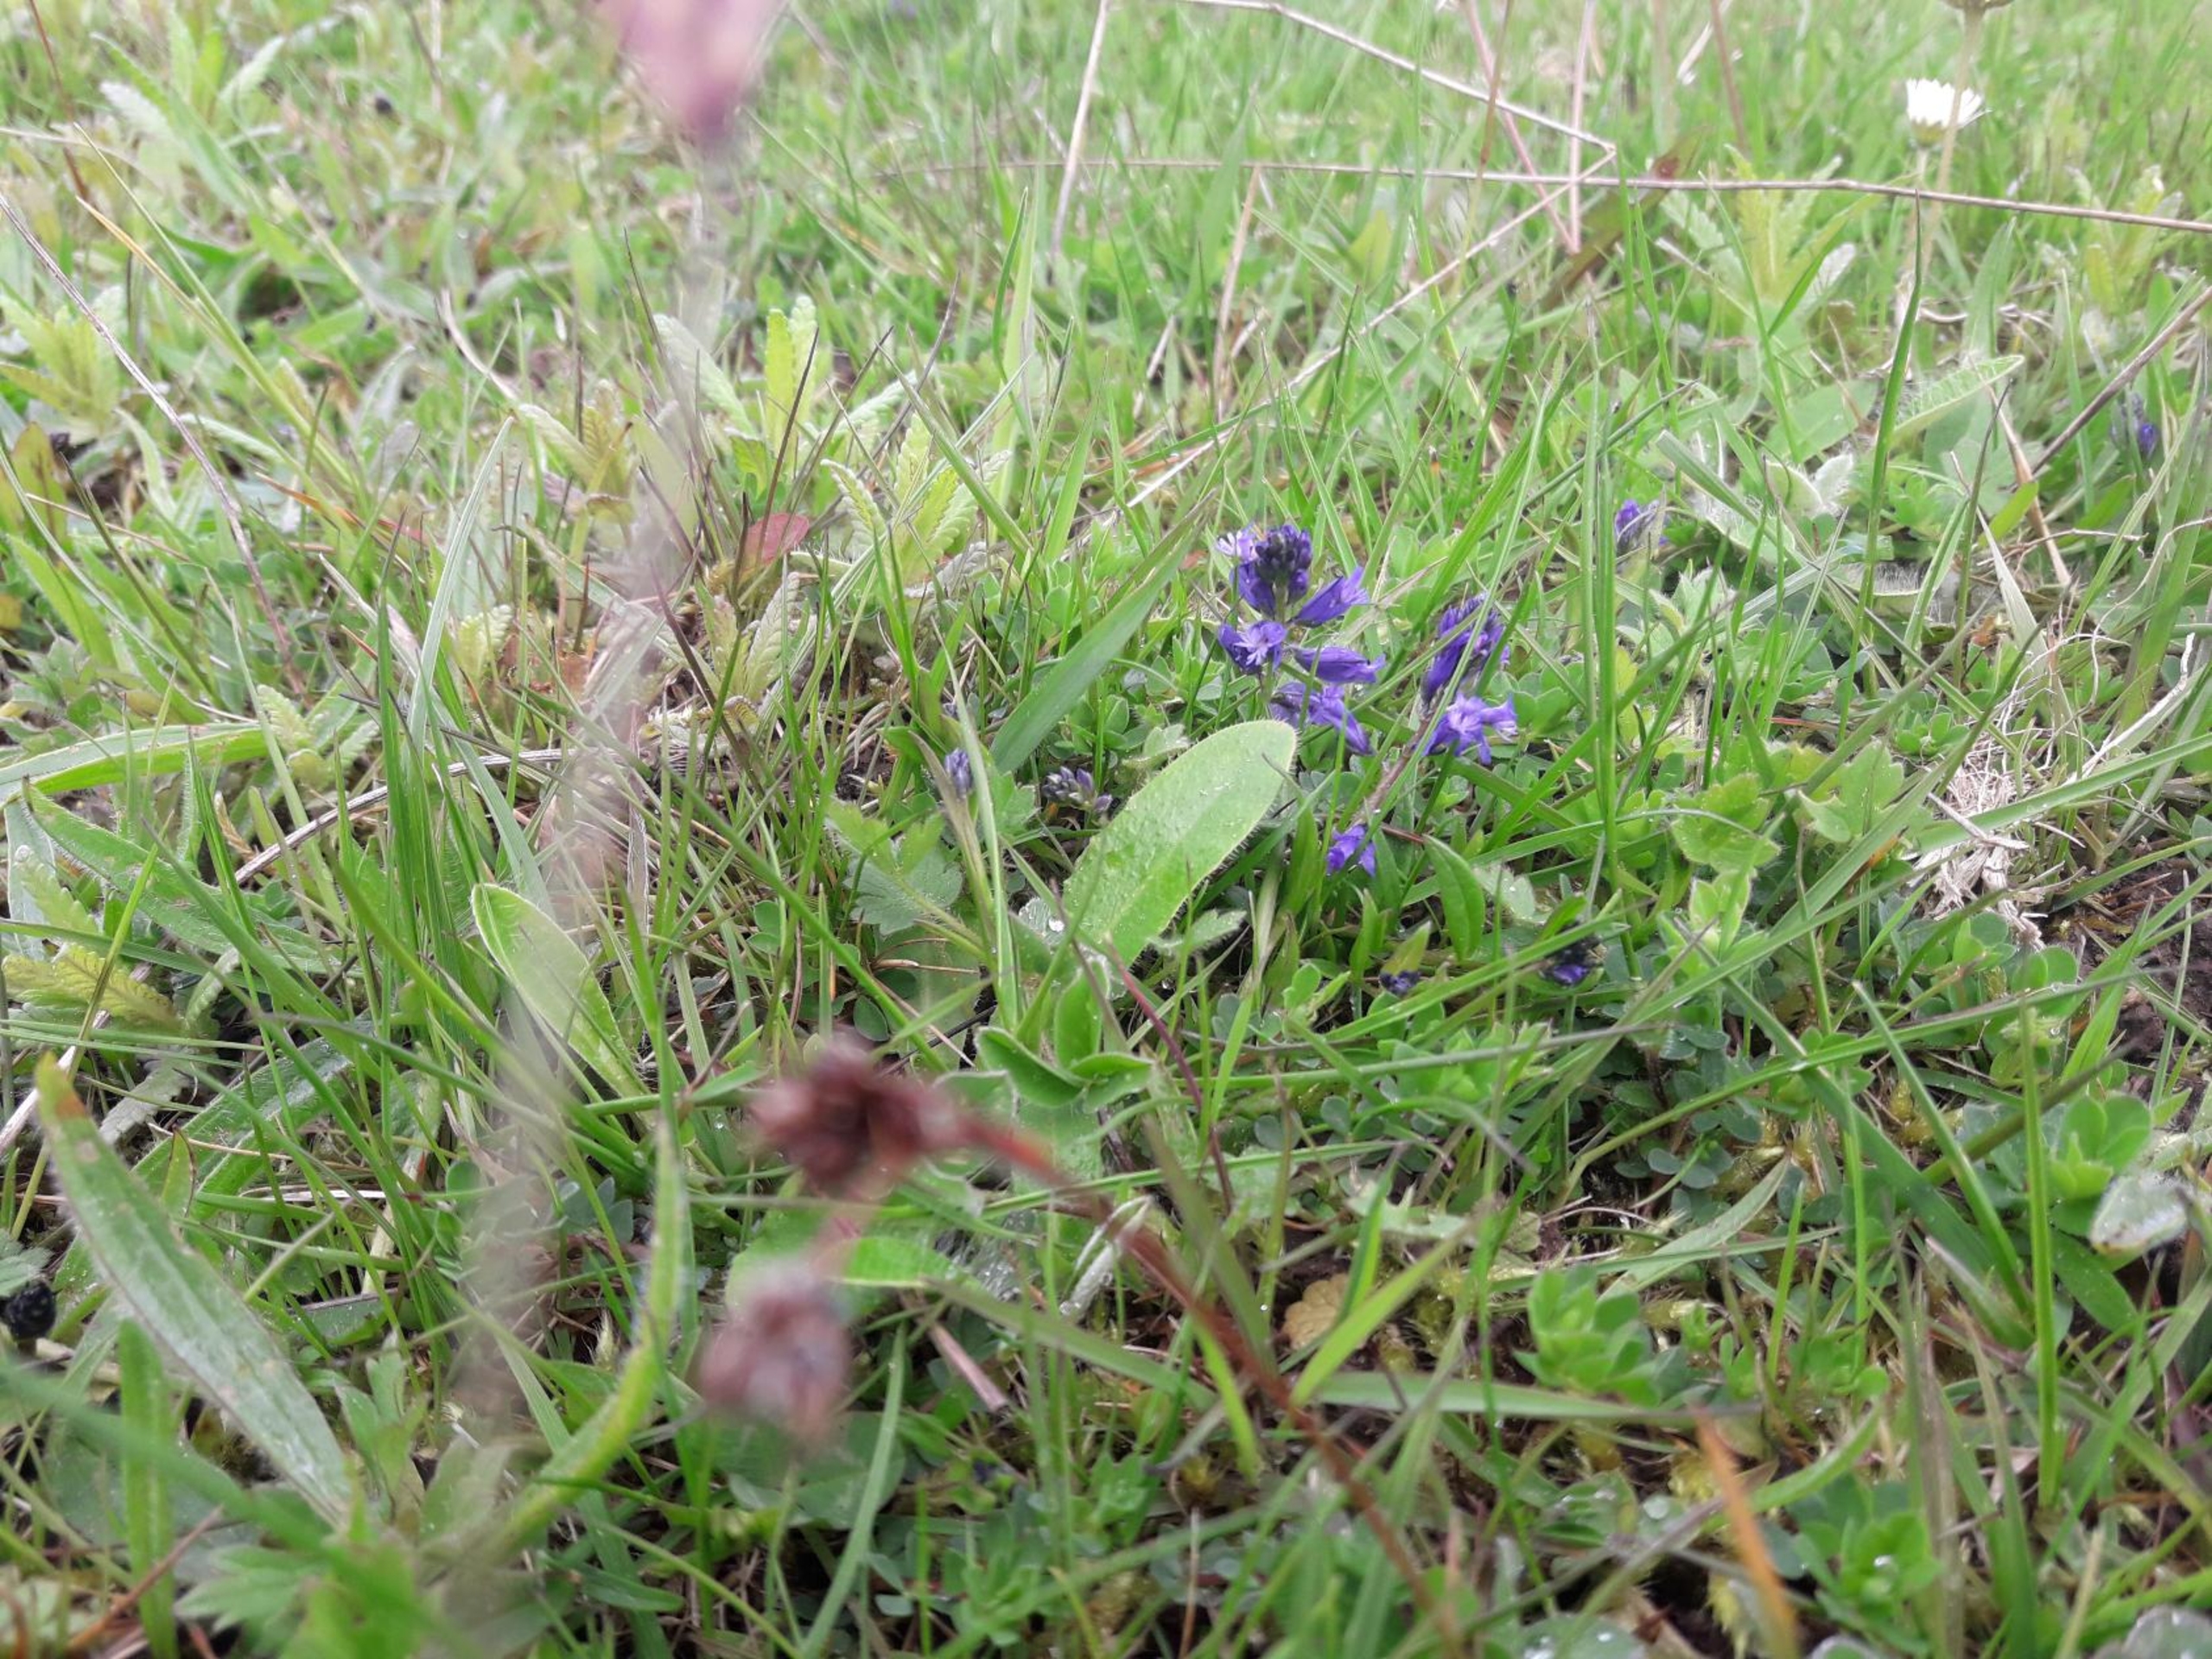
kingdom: Plantae
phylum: Tracheophyta
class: Magnoliopsida
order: Fabales
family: Polygalaceae
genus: Polygala
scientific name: Polygala vulgaris
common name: Almindelig mælkeurt
